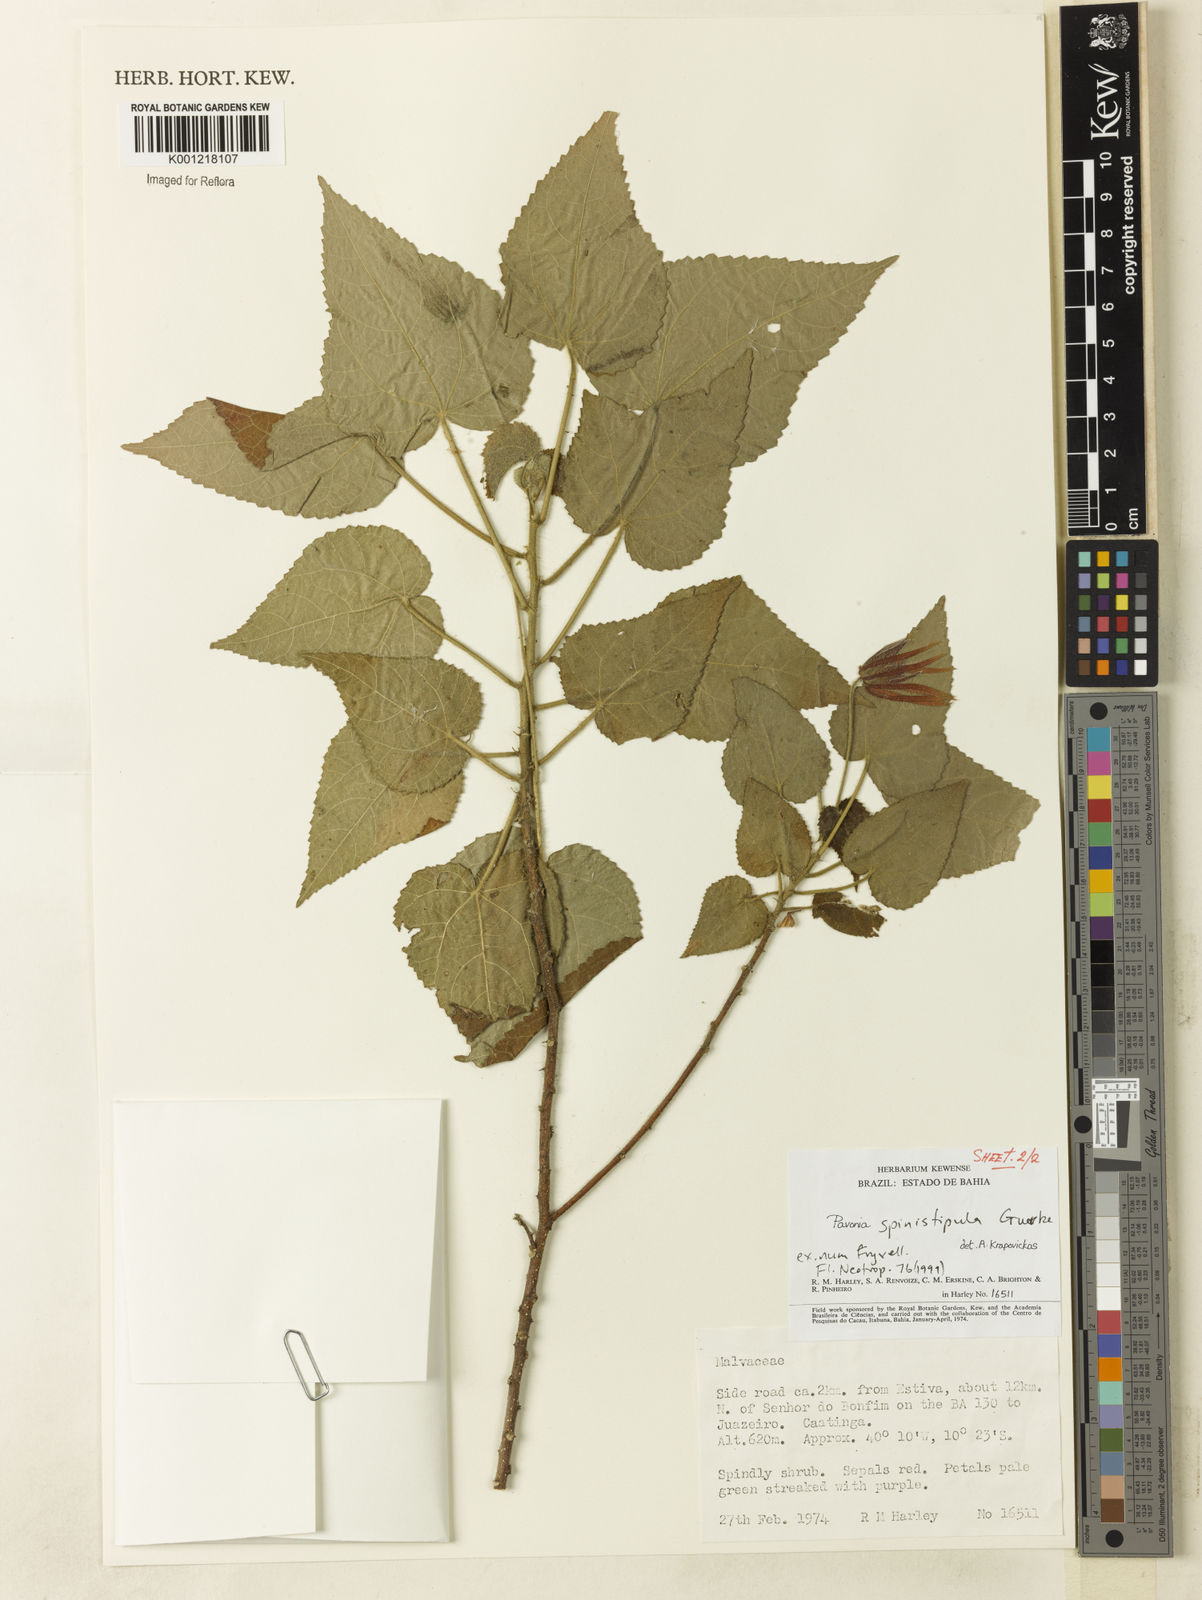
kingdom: Plantae
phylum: Tracheophyta
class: Magnoliopsida
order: Malvales
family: Malvaceae
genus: Pavonia
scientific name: Pavonia
